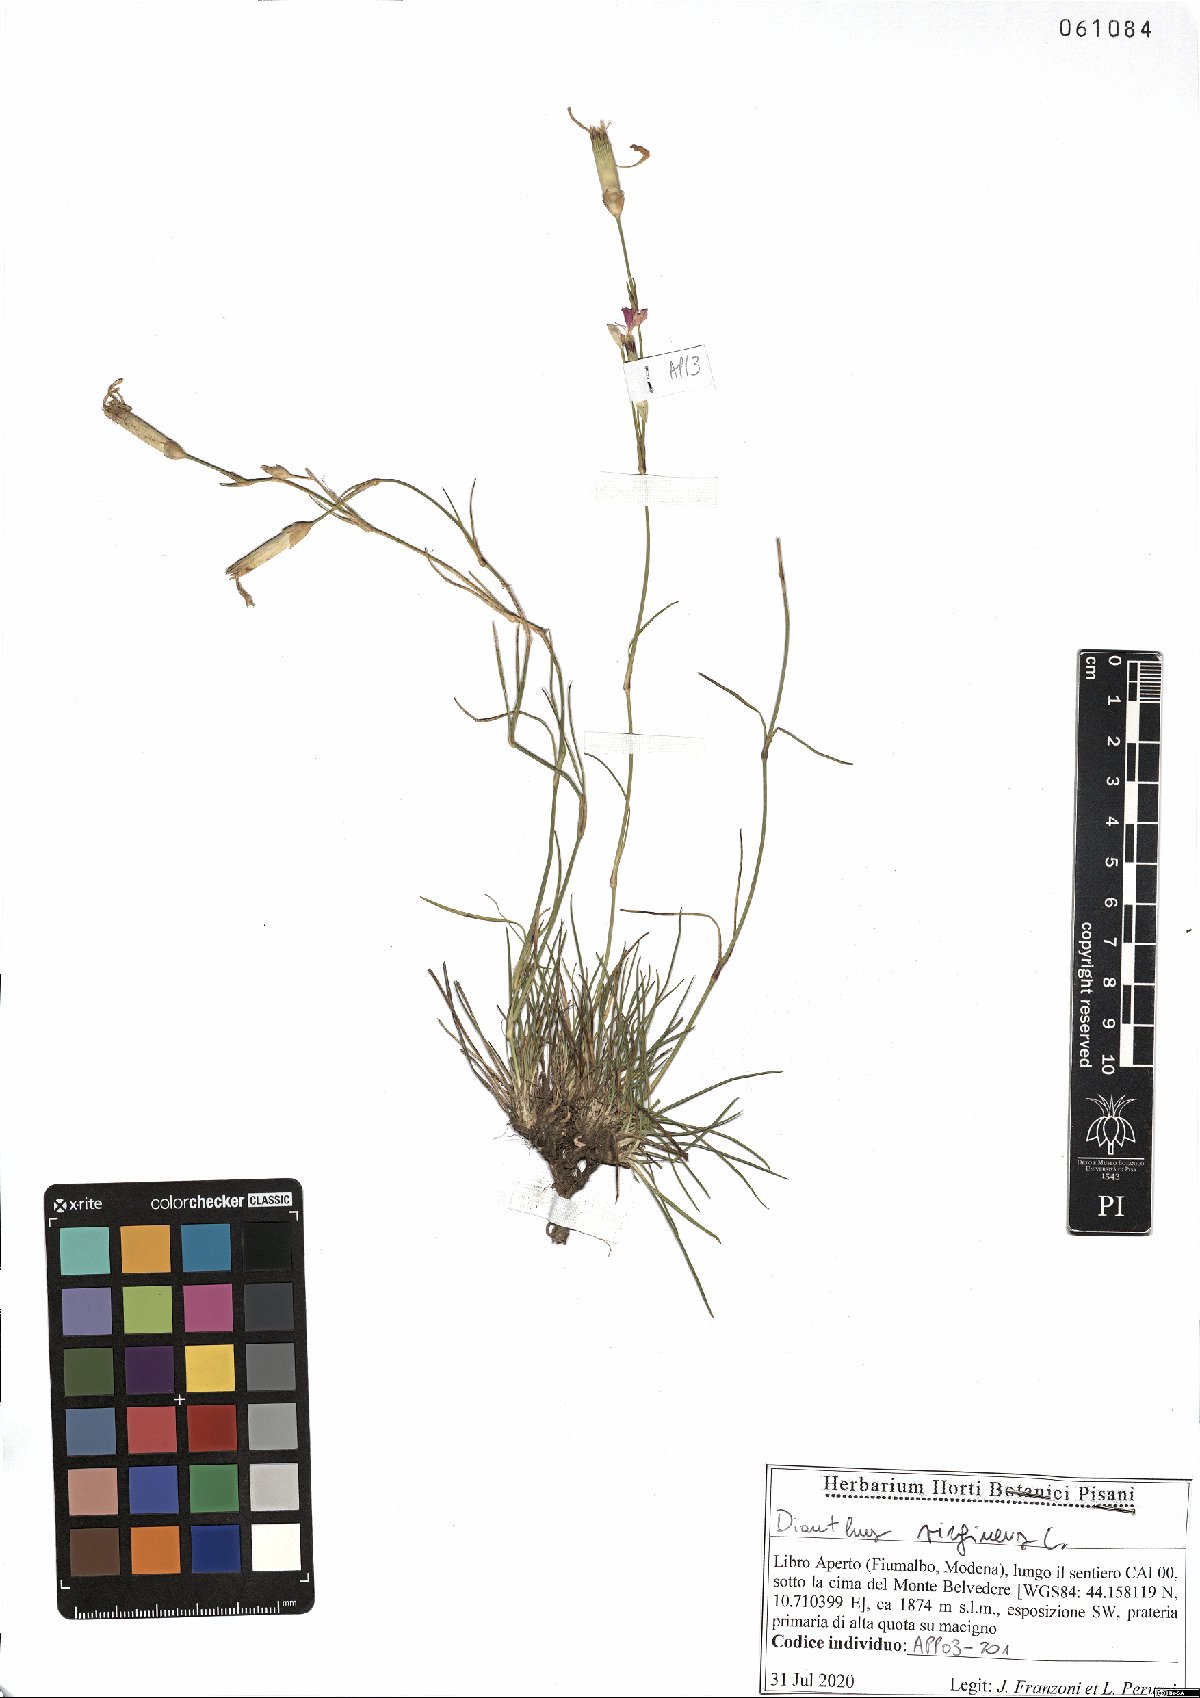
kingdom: Plantae
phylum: Tracheophyta
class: Magnoliopsida
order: Caryophyllales
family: Caryophyllaceae
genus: Dianthus
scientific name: Dianthus virgineus
